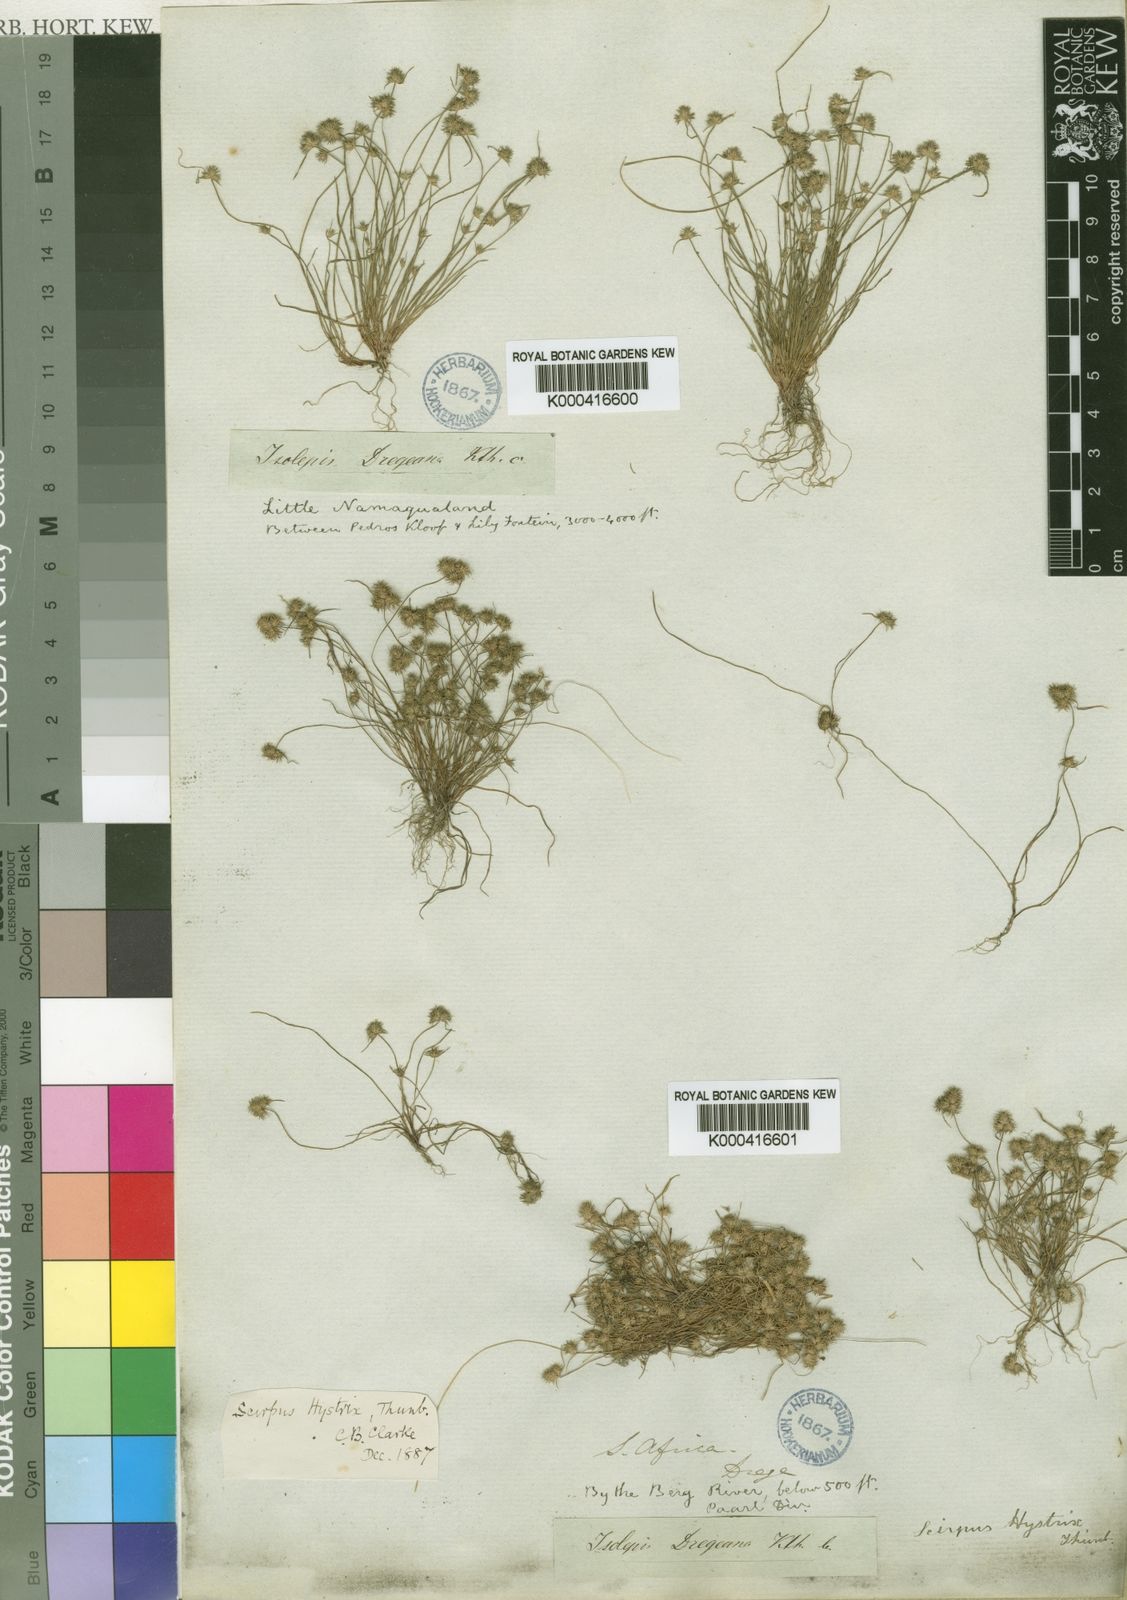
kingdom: Plantae
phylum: Tracheophyta
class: Liliopsida
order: Poales
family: Cyperaceae
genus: Isolepis
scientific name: Isolepis hystrix
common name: Bottlebrush bulrush
